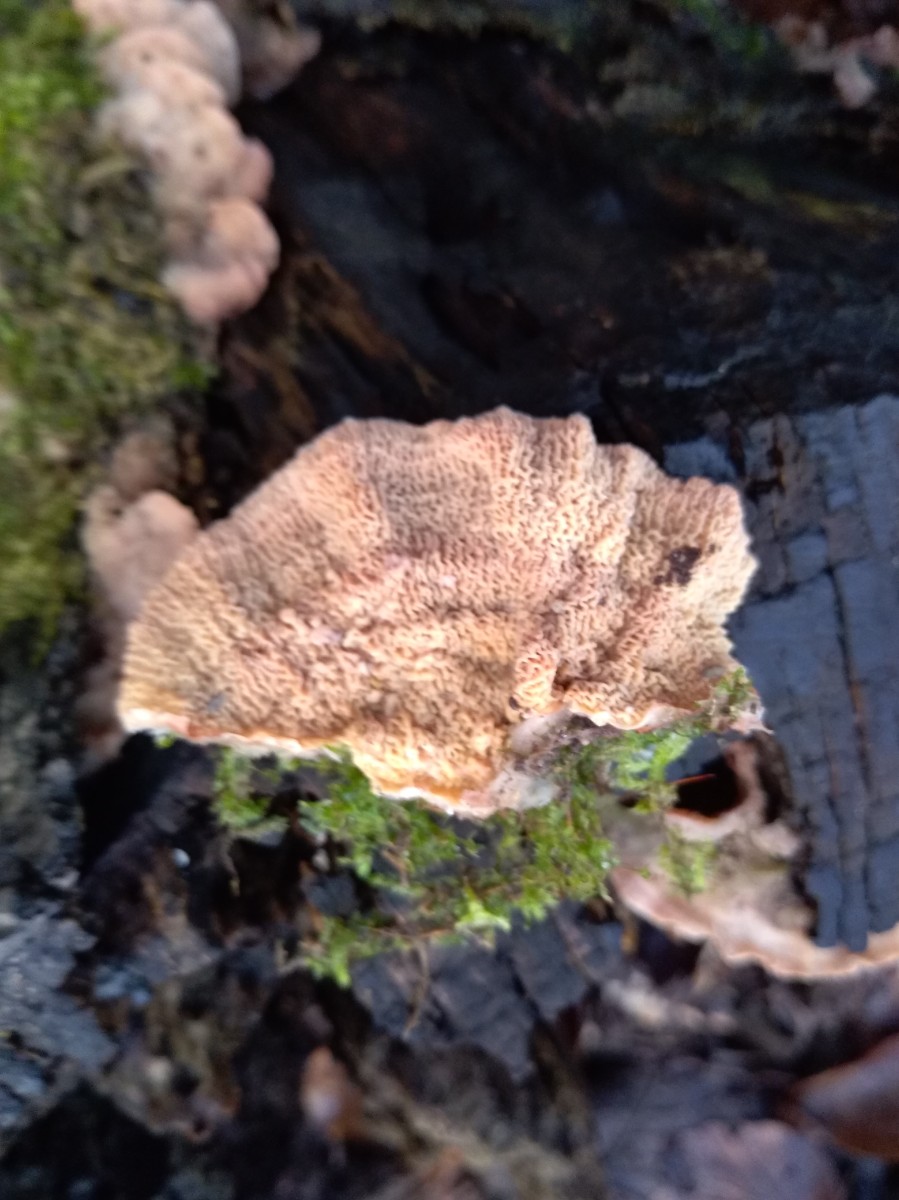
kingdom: Fungi
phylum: Basidiomycota
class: Agaricomycetes
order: Polyporales
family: Meruliaceae
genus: Phlebia
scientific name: Phlebia tremellosa
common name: bævrende åresvamp
